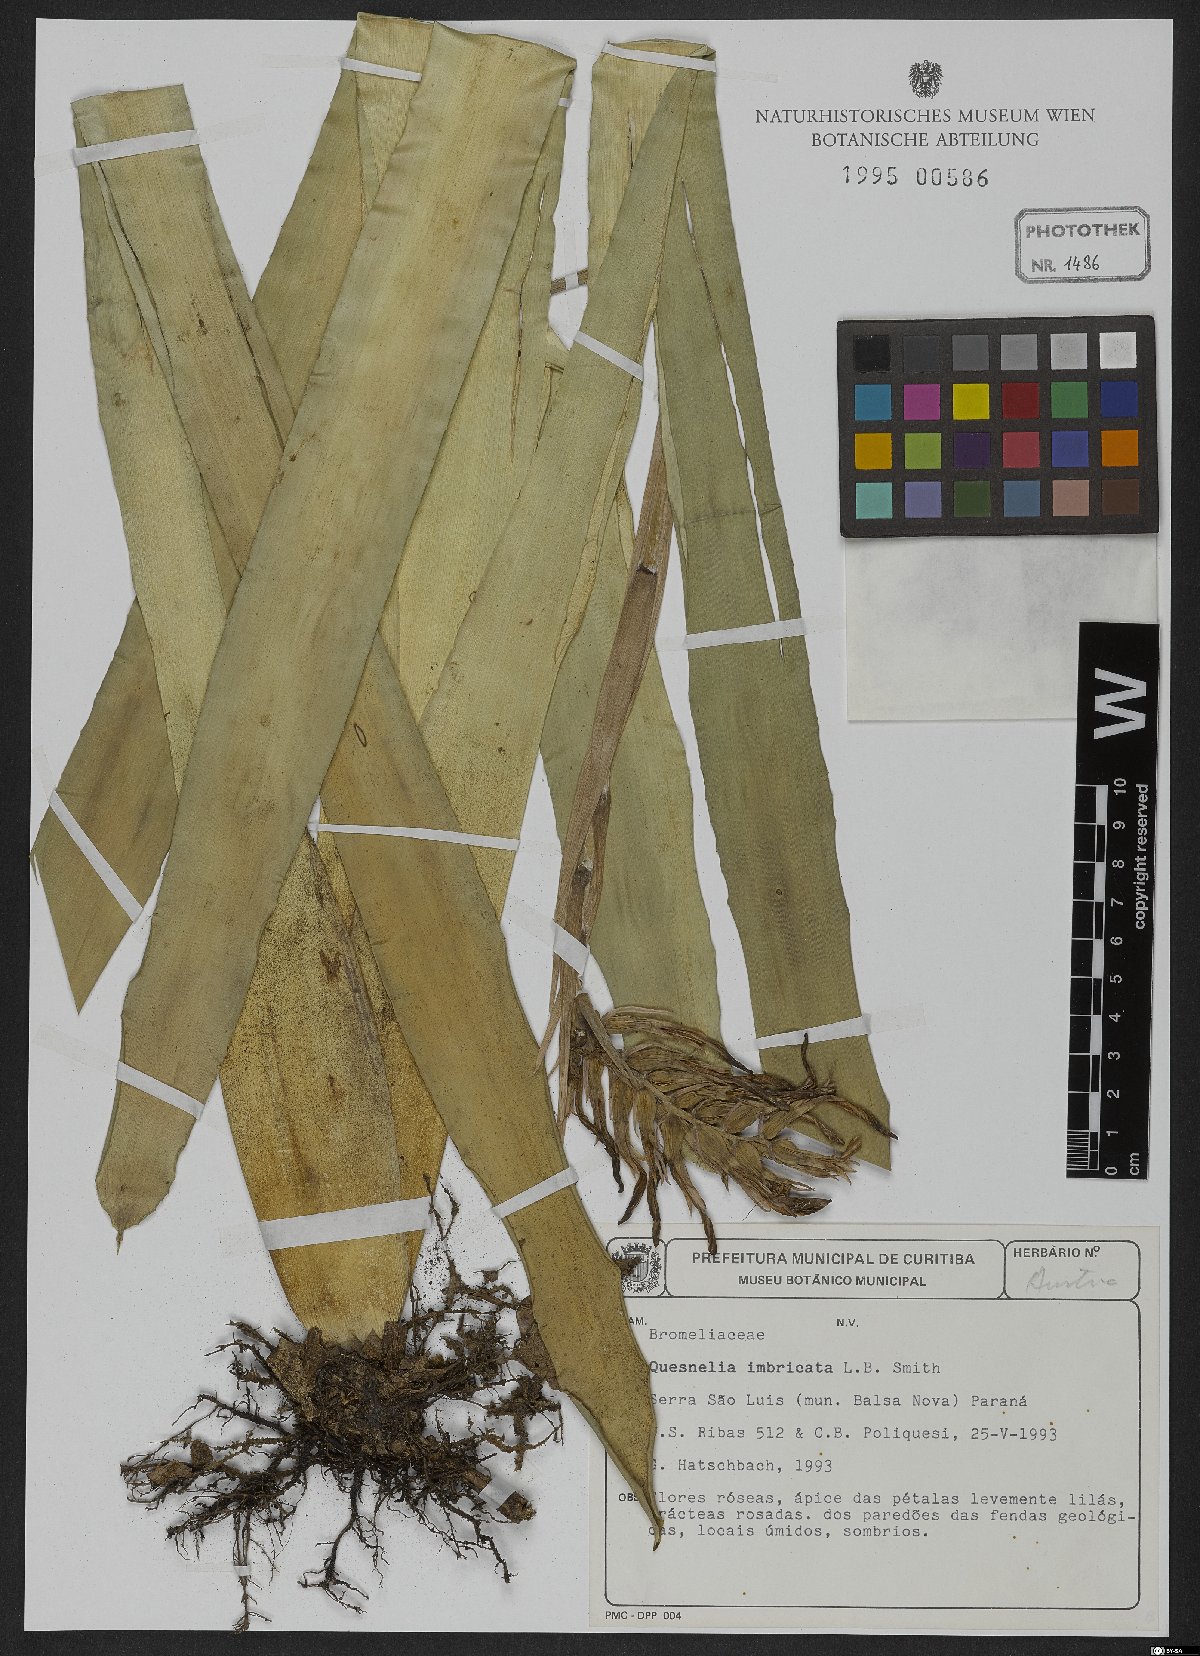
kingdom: Plantae
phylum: Tracheophyta
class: Liliopsida
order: Poales
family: Bromeliaceae
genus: Quesnelia
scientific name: Quesnelia imbricata
